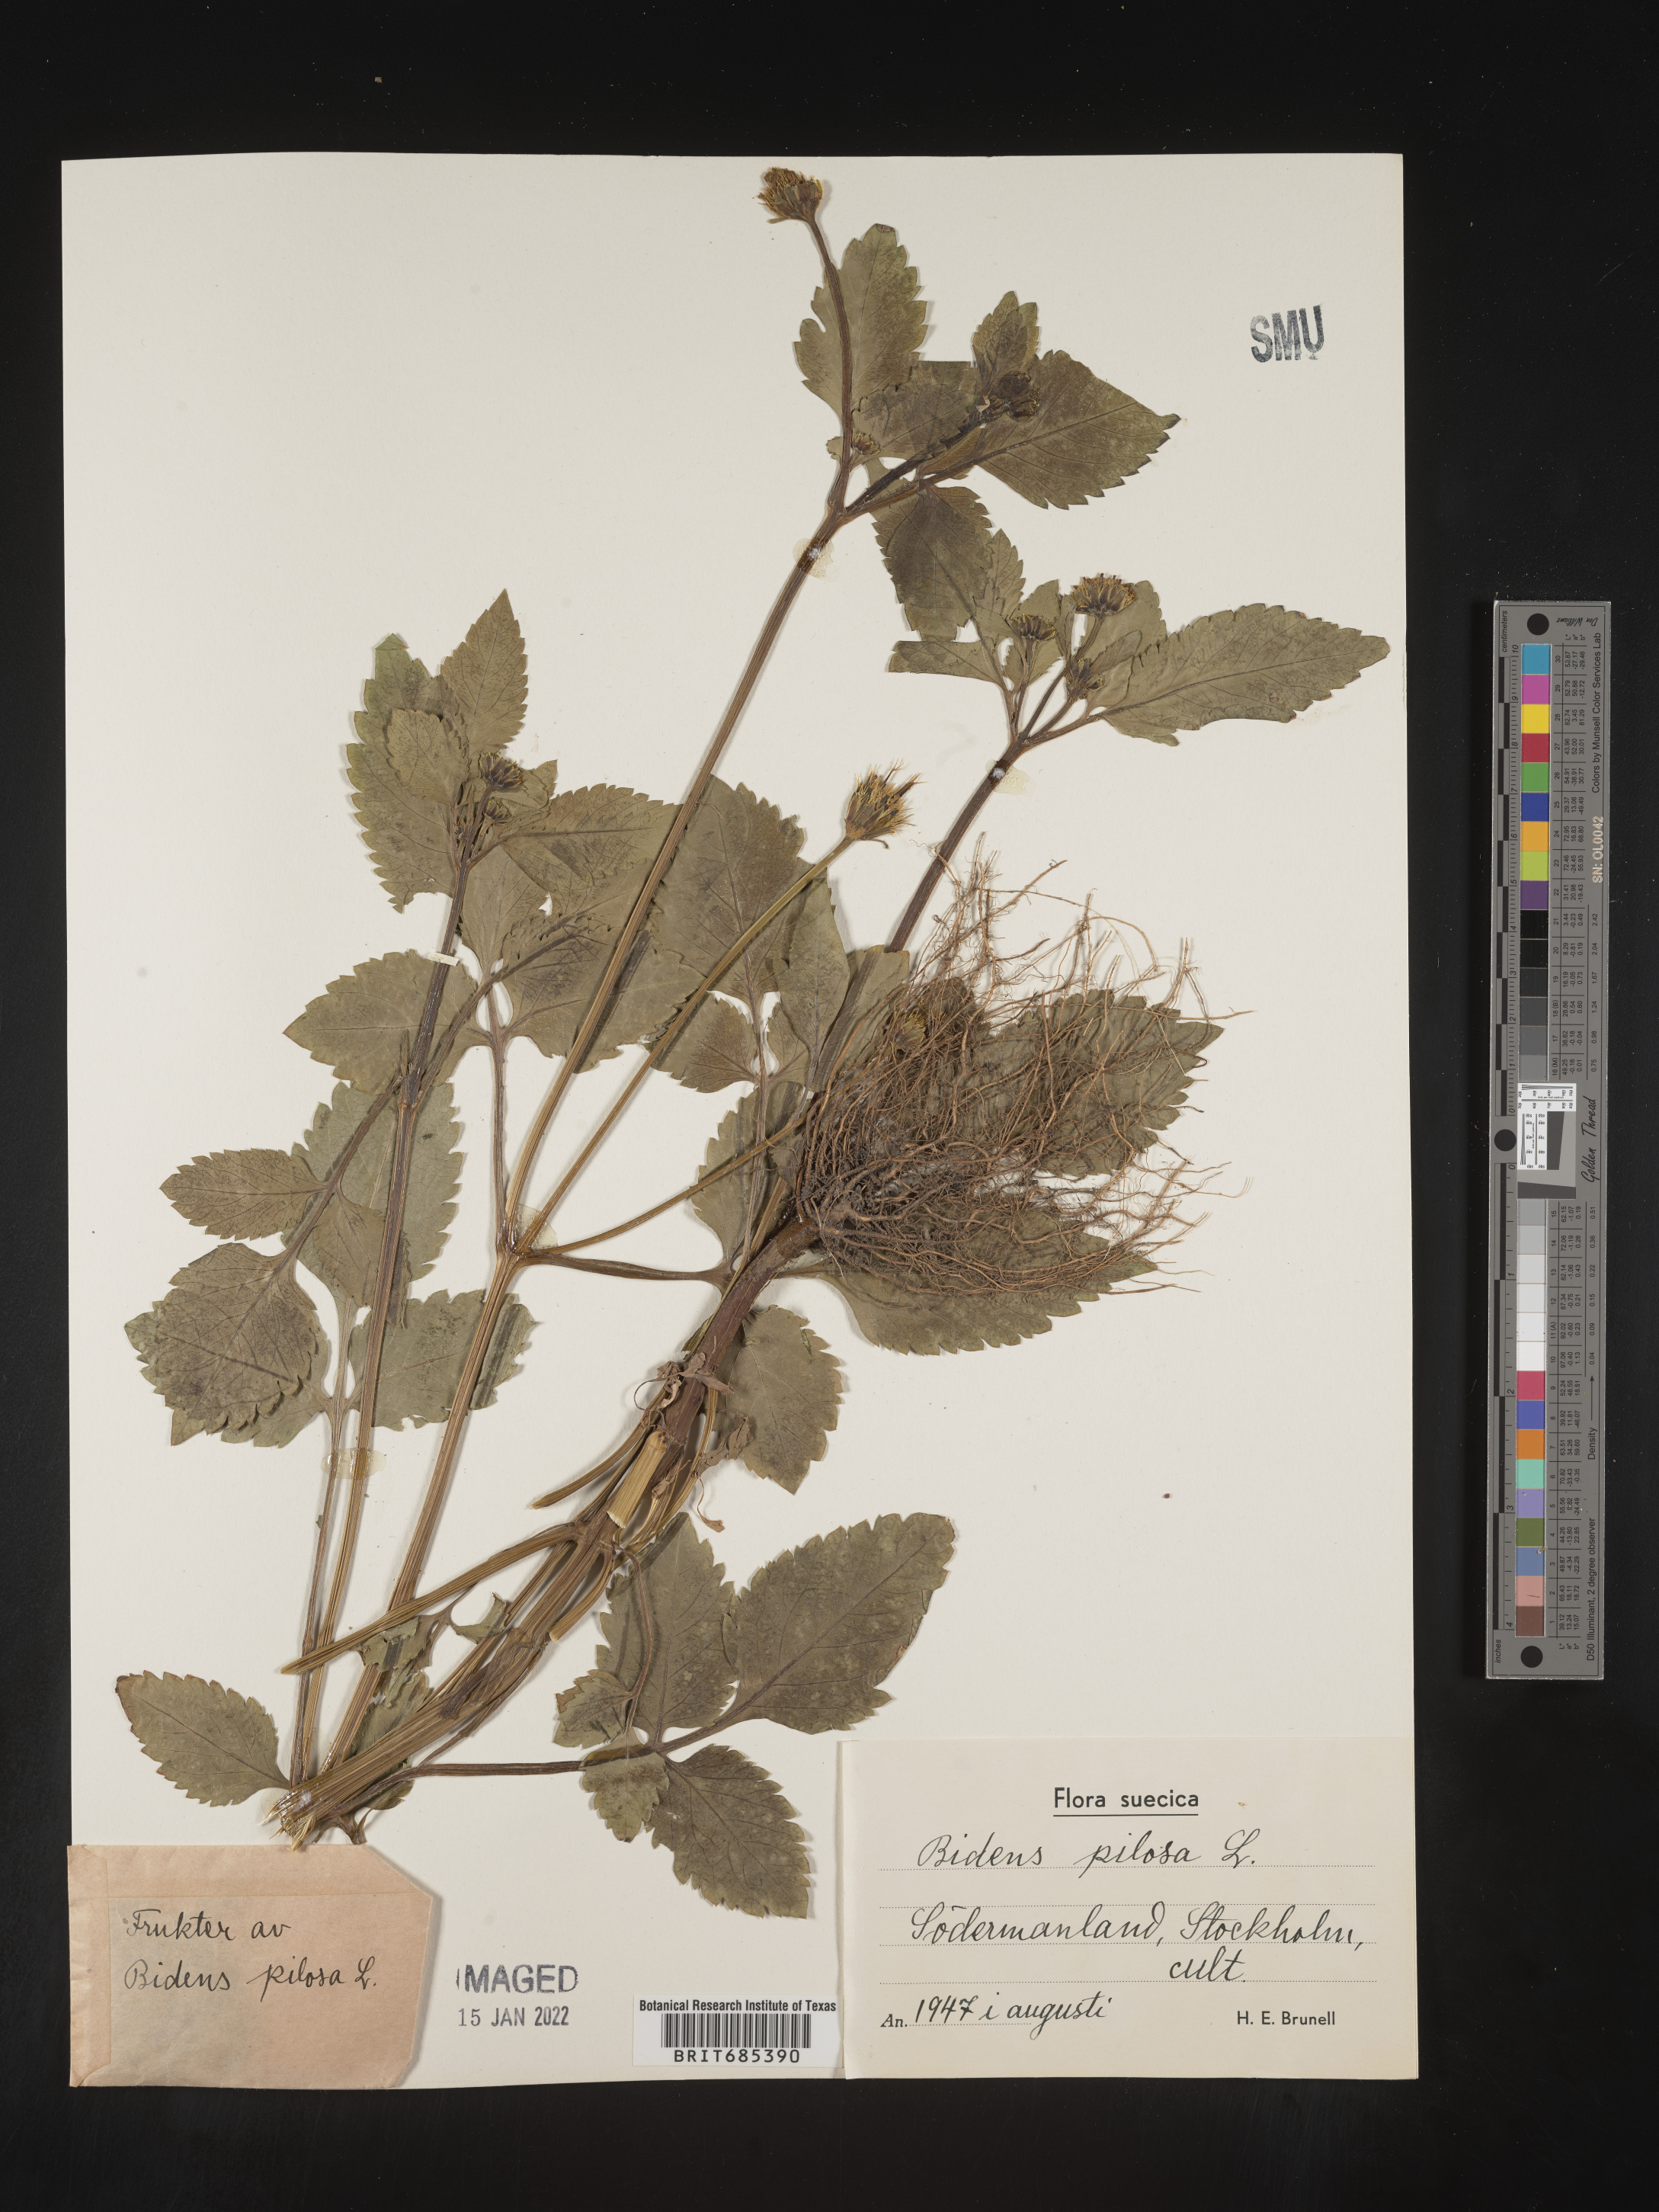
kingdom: Plantae
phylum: Tracheophyta
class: Magnoliopsida
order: Asterales
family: Asteraceae
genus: Bidens
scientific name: Bidens
